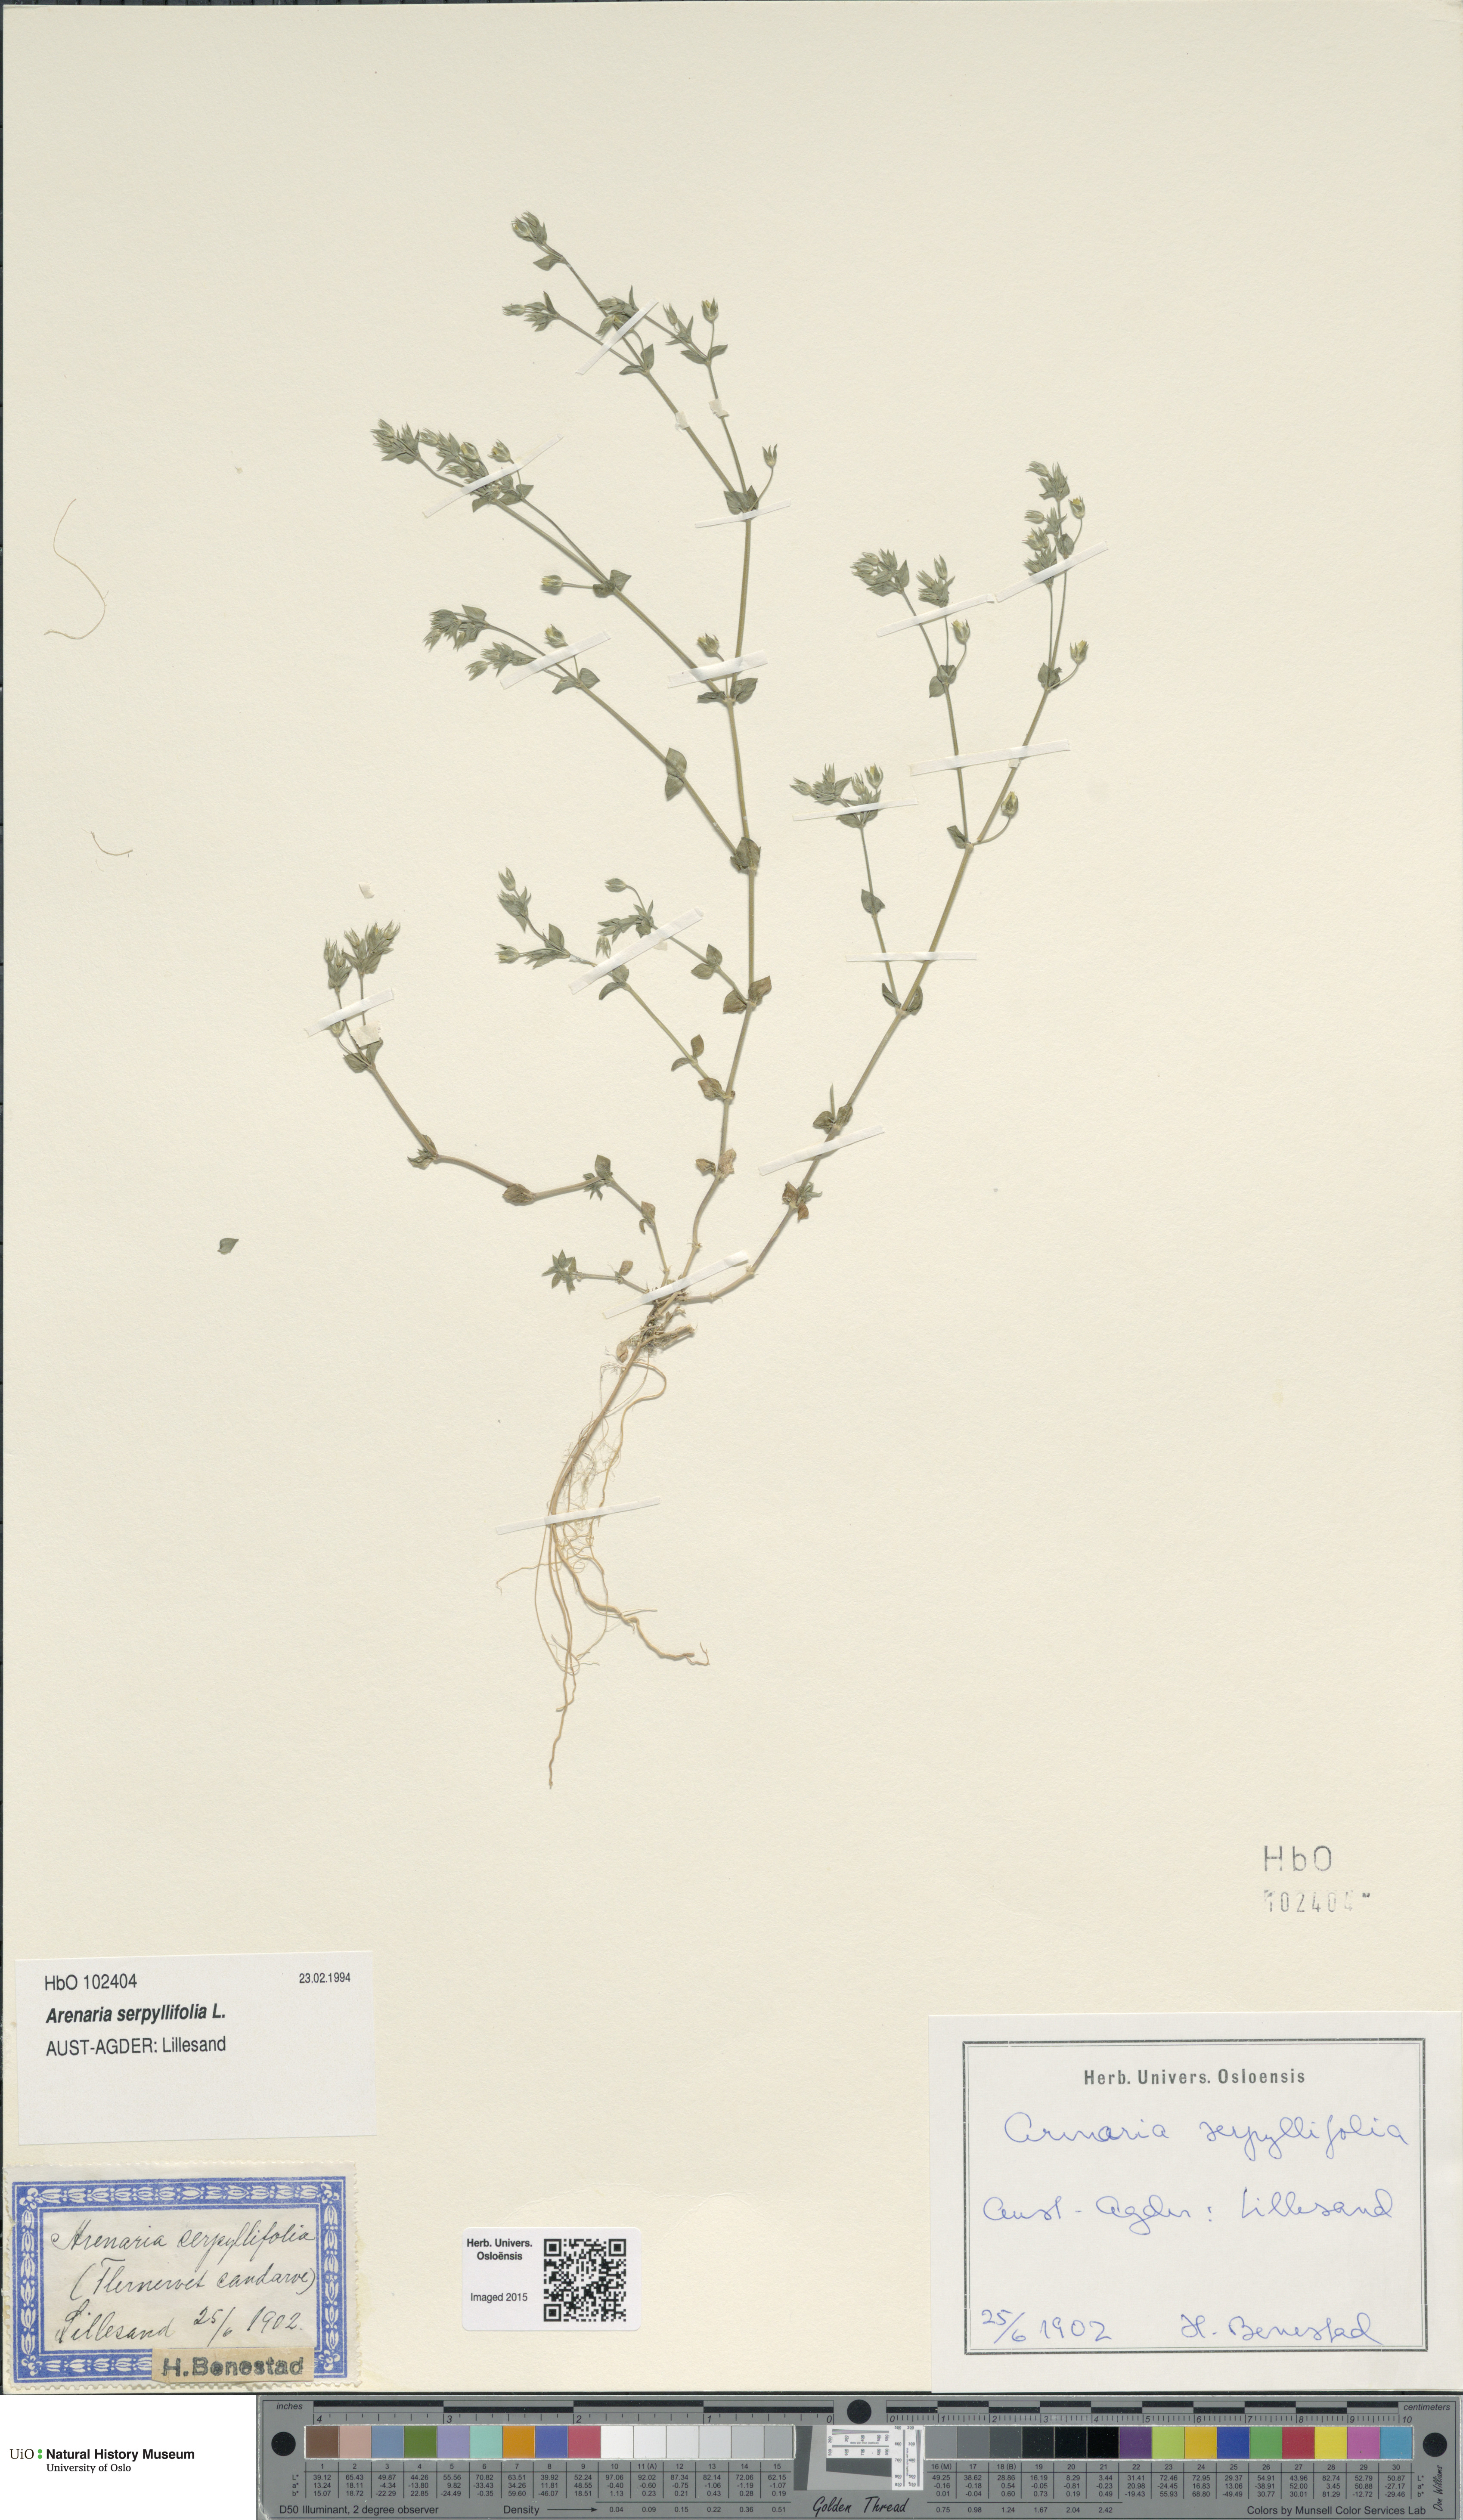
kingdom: Plantae
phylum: Tracheophyta
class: Magnoliopsida
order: Caryophyllales
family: Caryophyllaceae
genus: Arenaria
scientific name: Arenaria serpyllifolia
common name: Thyme-leaved sandwort
